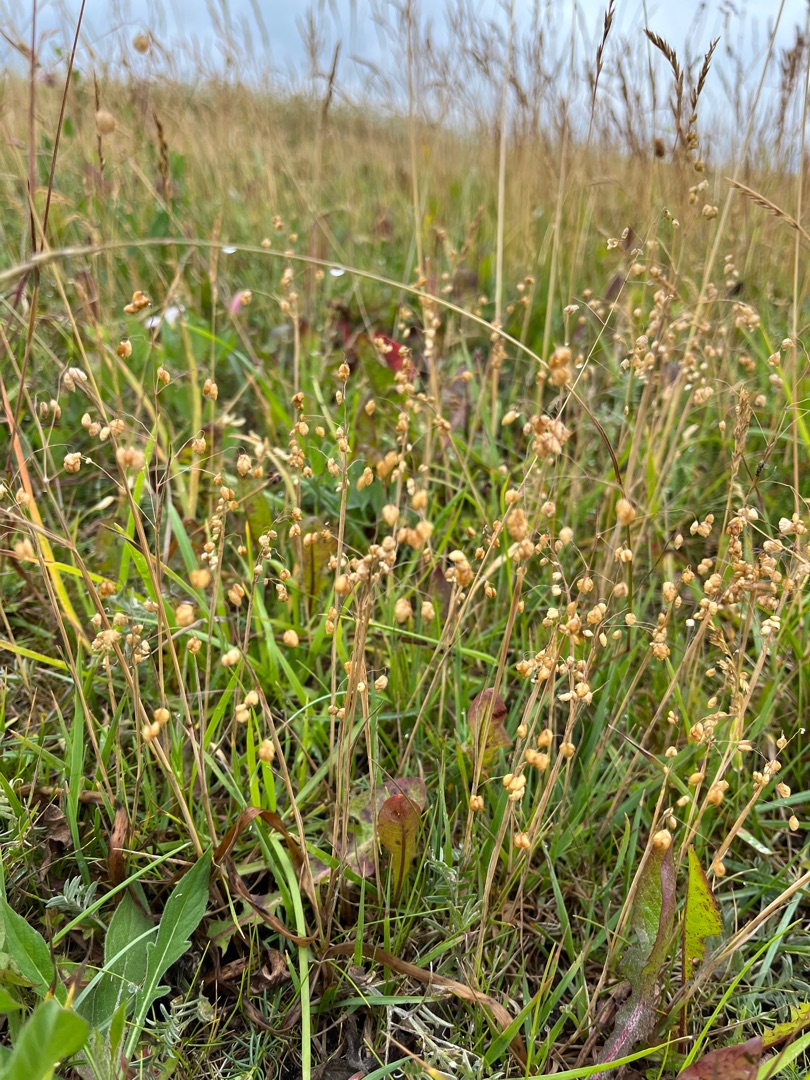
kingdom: Plantae
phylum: Tracheophyta
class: Liliopsida
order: Poales
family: Poaceae
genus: Briza
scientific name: Briza media
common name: Hjertegræs
